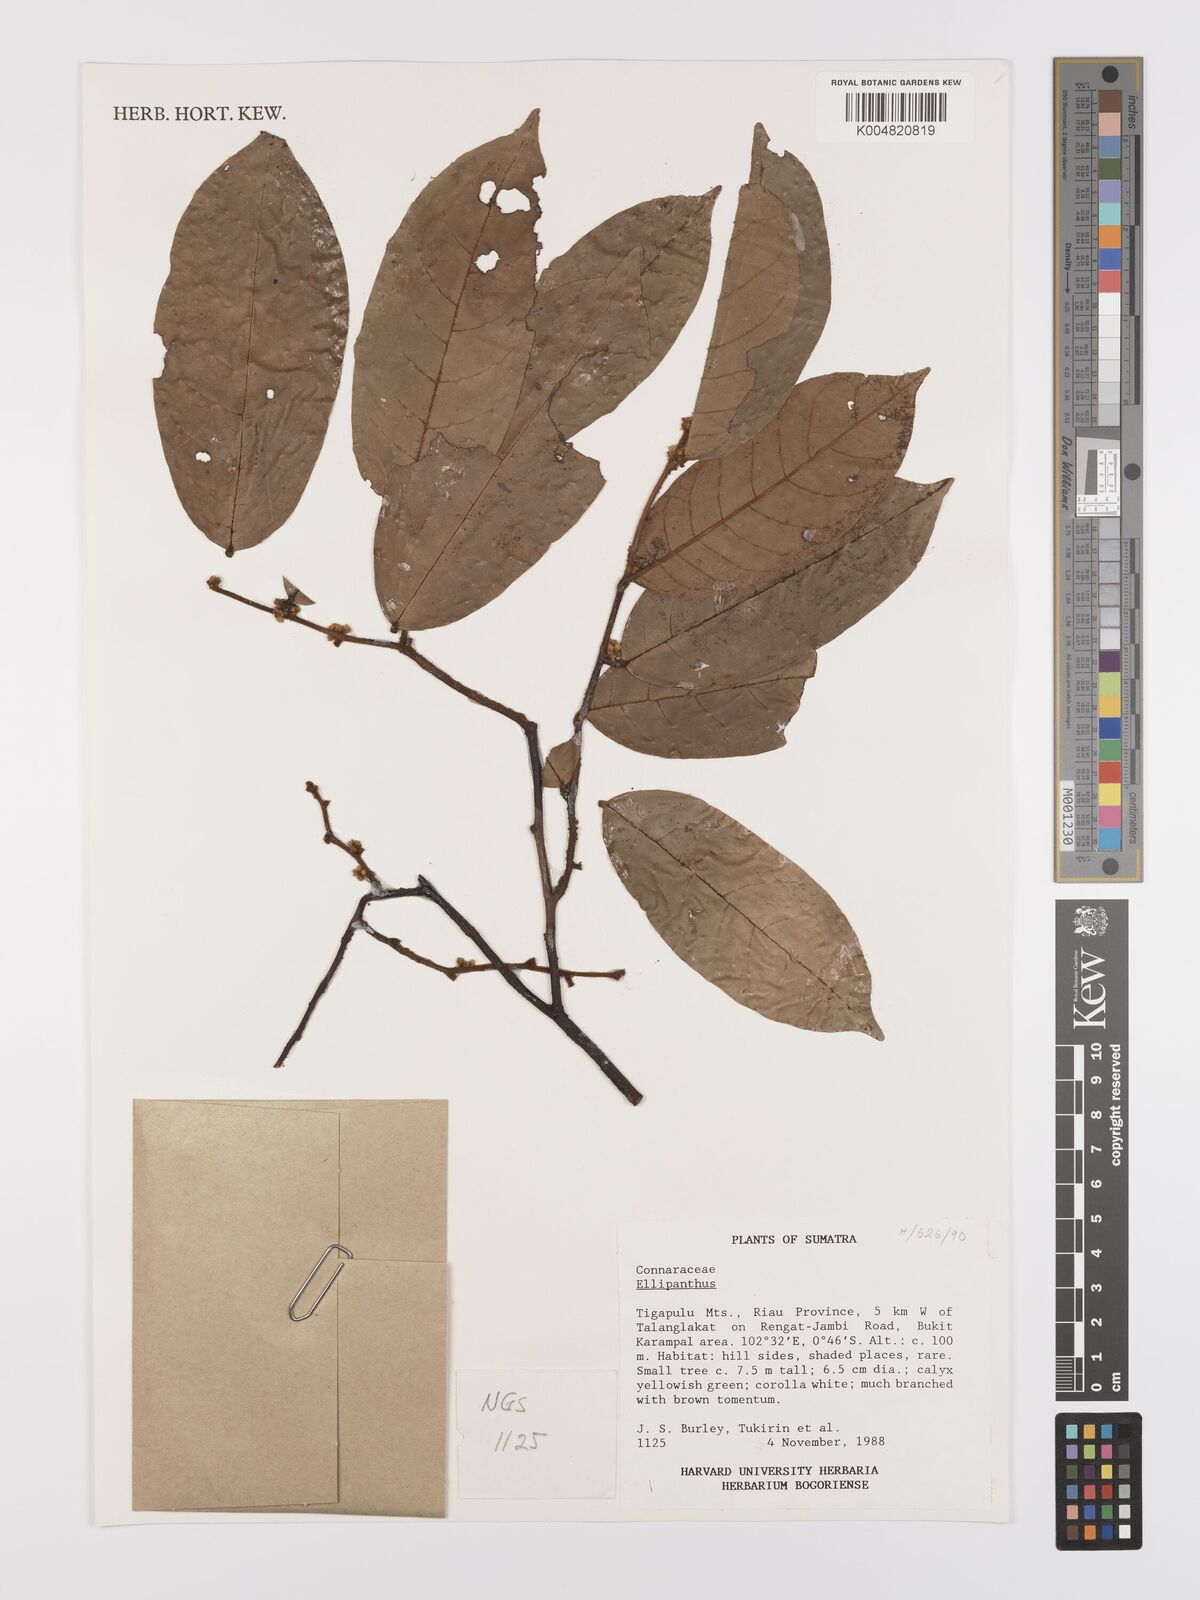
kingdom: Plantae
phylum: Tracheophyta
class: Magnoliopsida
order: Oxalidales
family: Connaraceae
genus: Ellipanthus
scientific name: Ellipanthus
